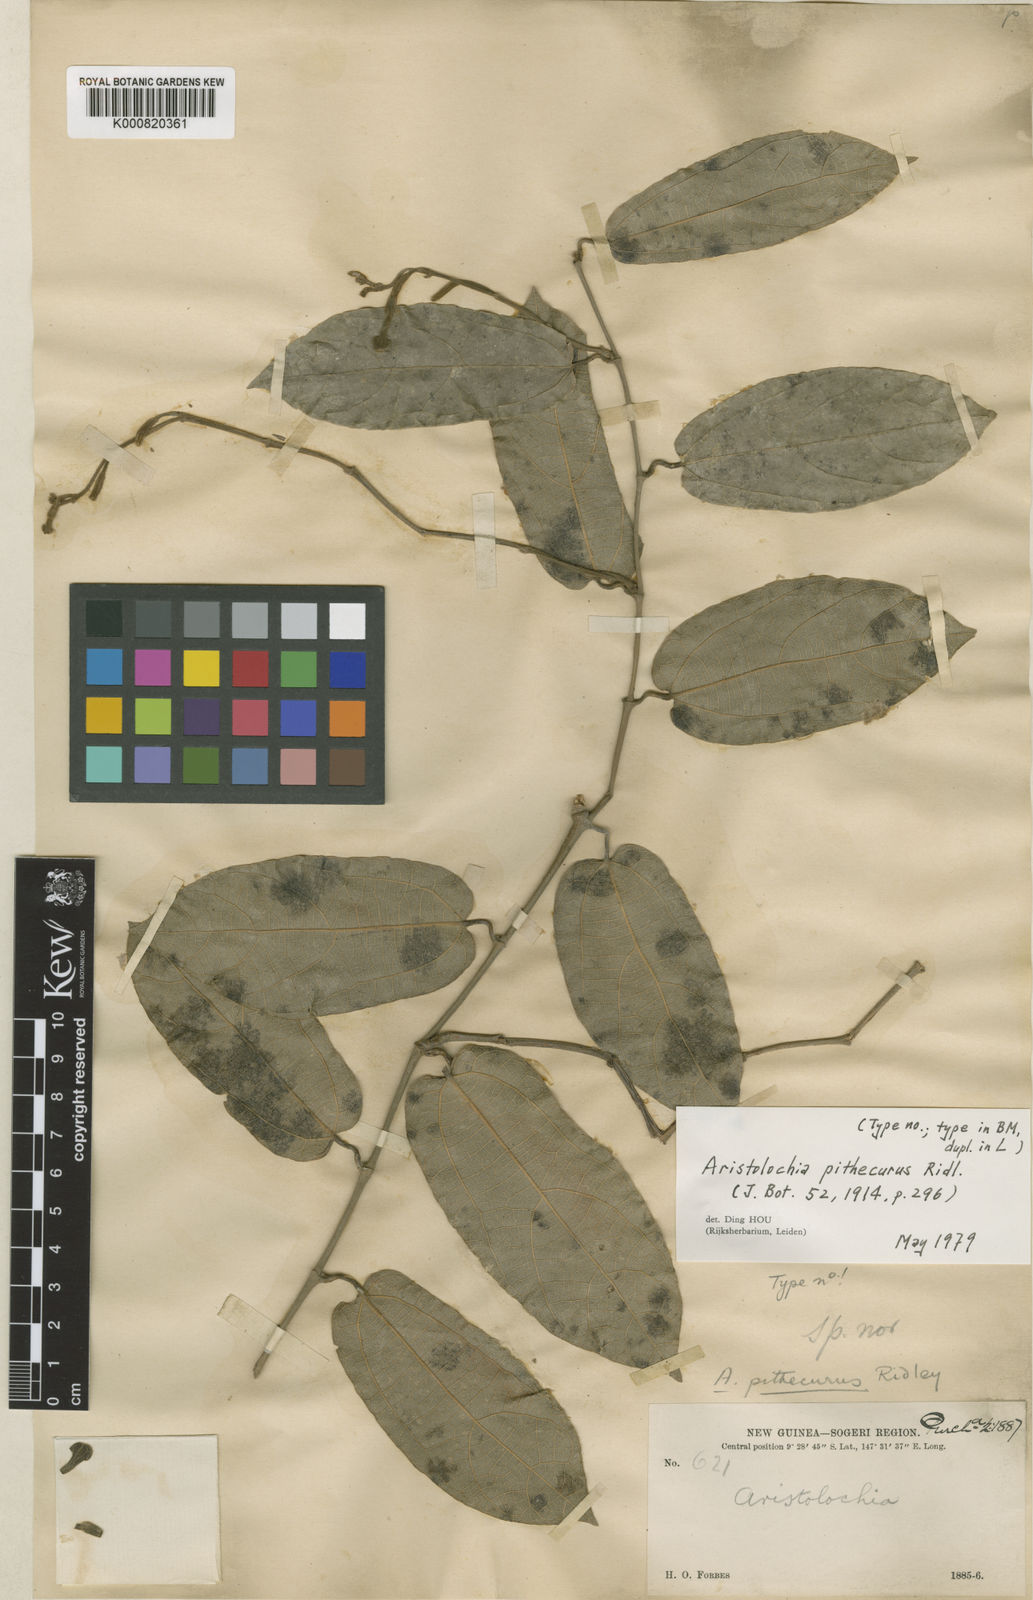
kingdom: Plantae
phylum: Tracheophyta
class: Magnoliopsida
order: Piperales
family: Aristolochiaceae
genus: Aristolochia
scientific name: Aristolochia pithecurus
